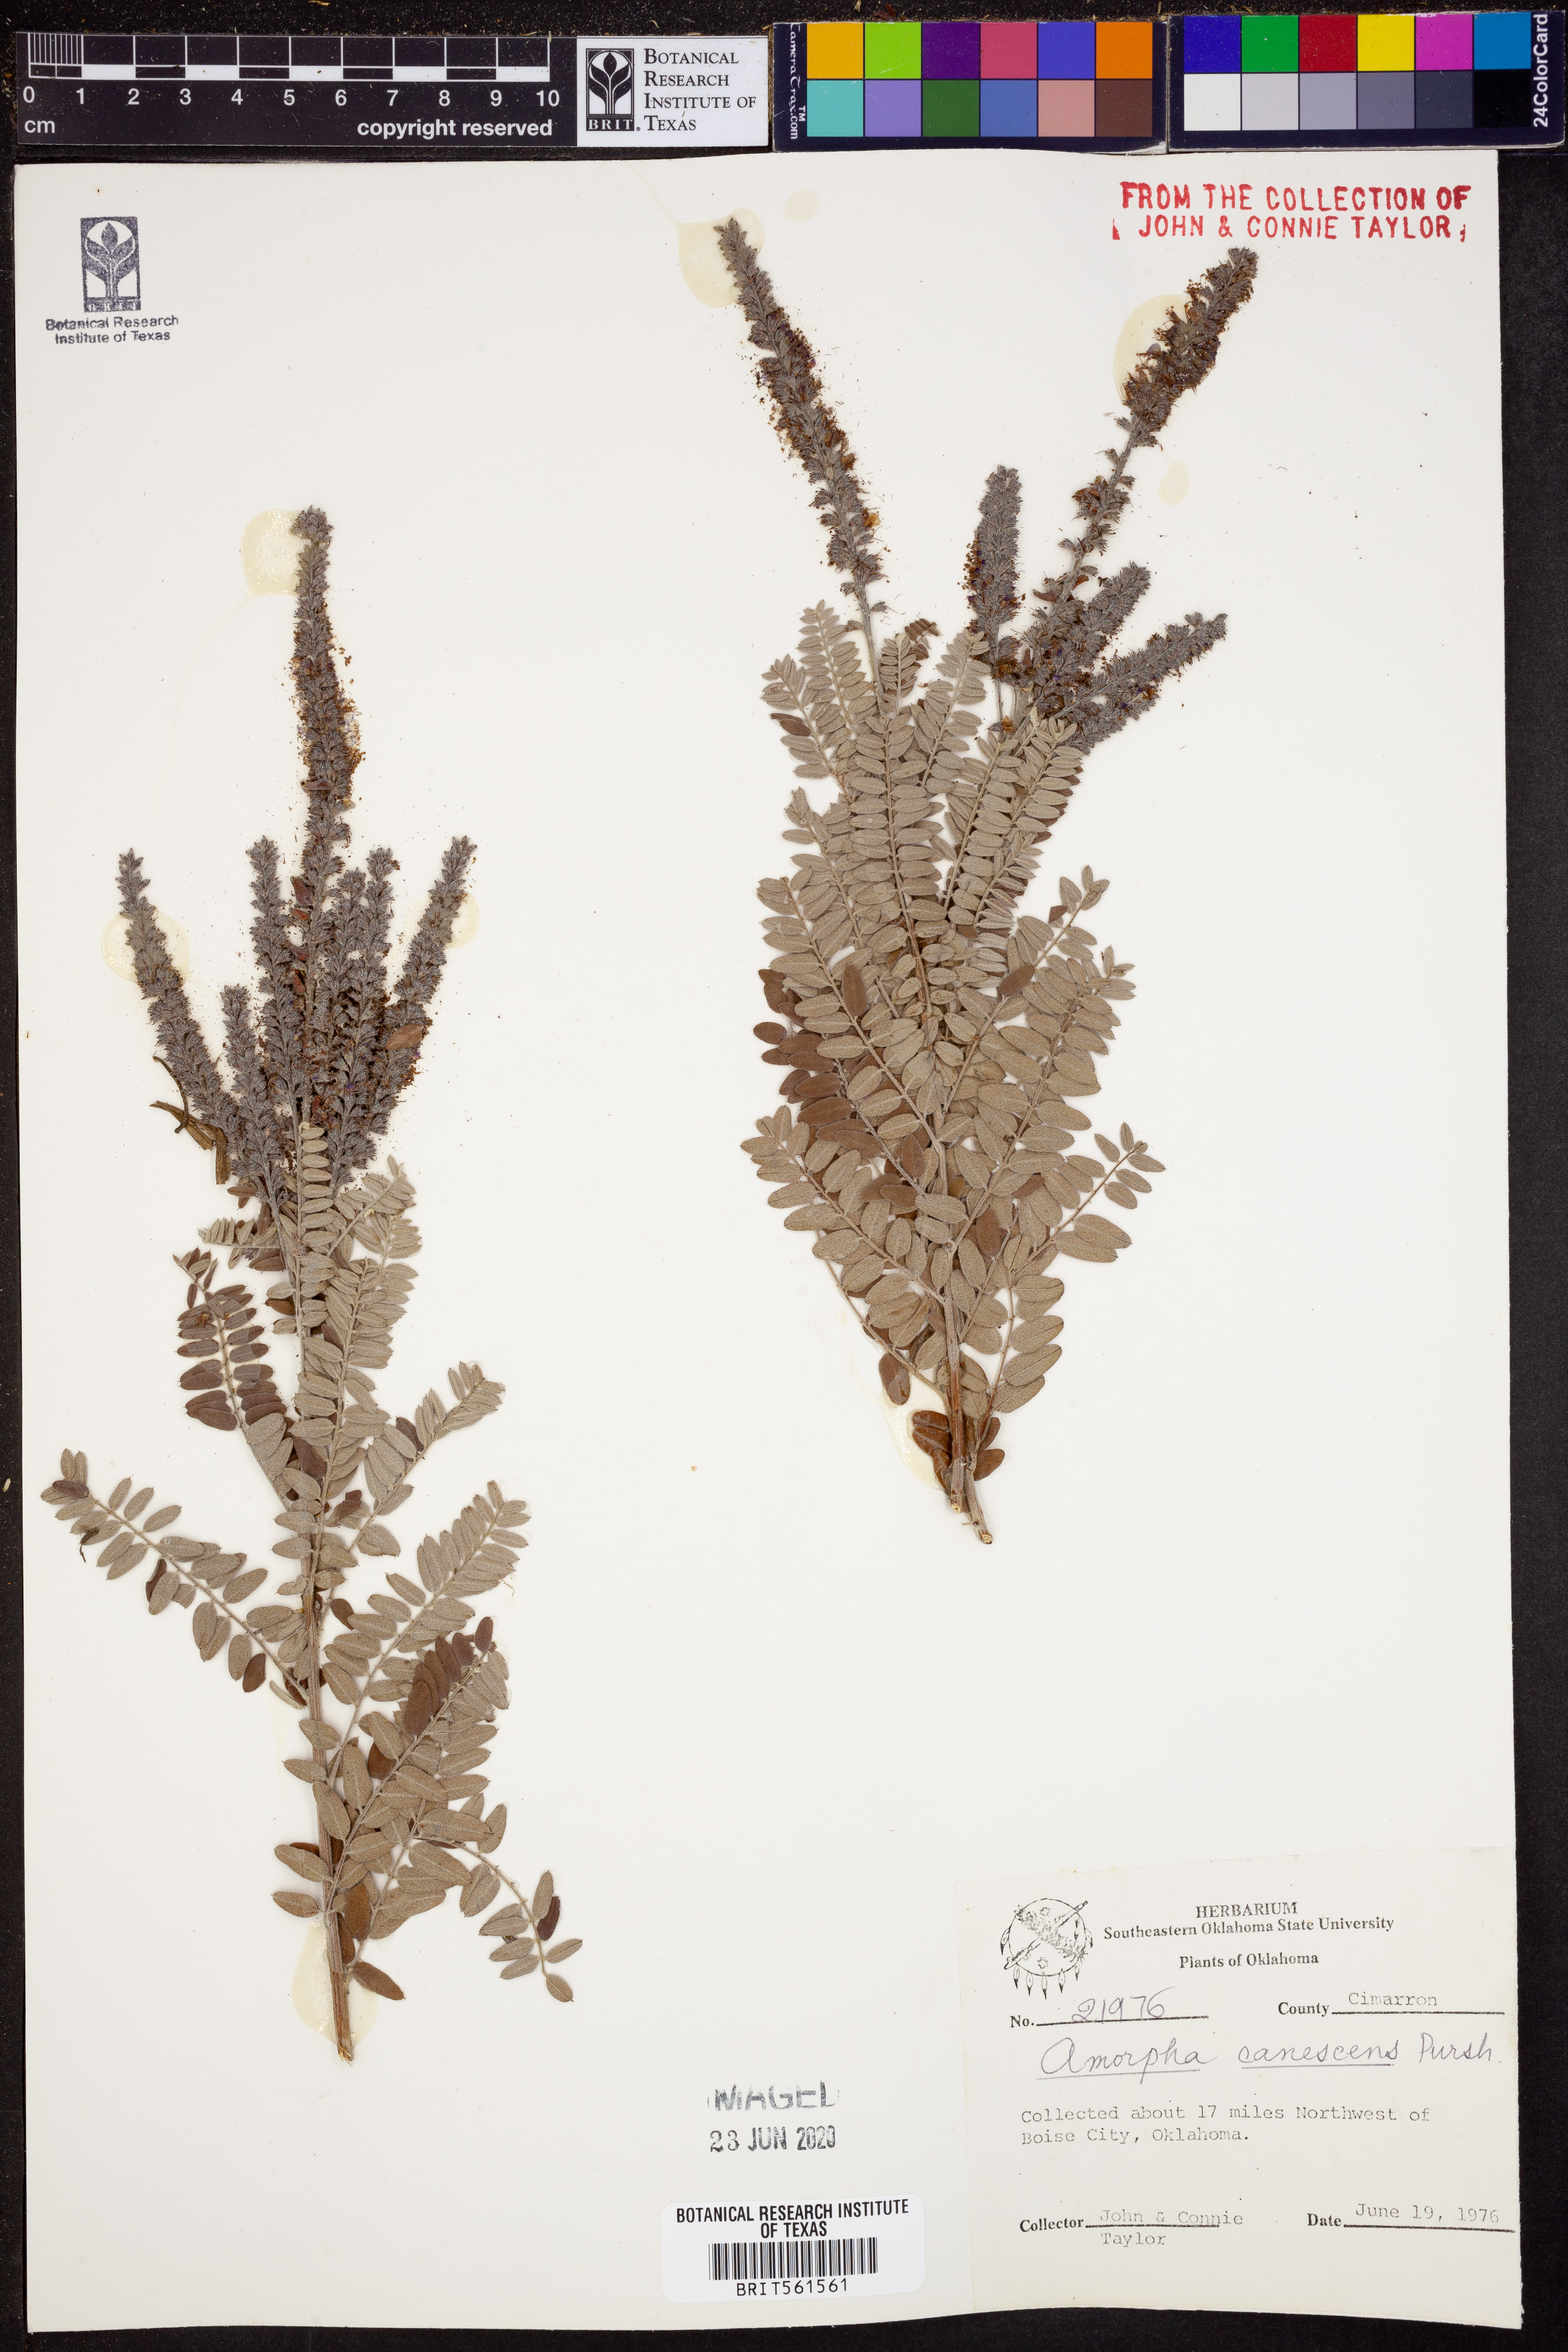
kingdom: Plantae
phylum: Tracheophyta
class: Magnoliopsida
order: Fabales
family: Fabaceae
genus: Amorpha
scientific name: Amorpha canescens
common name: Leadplant
